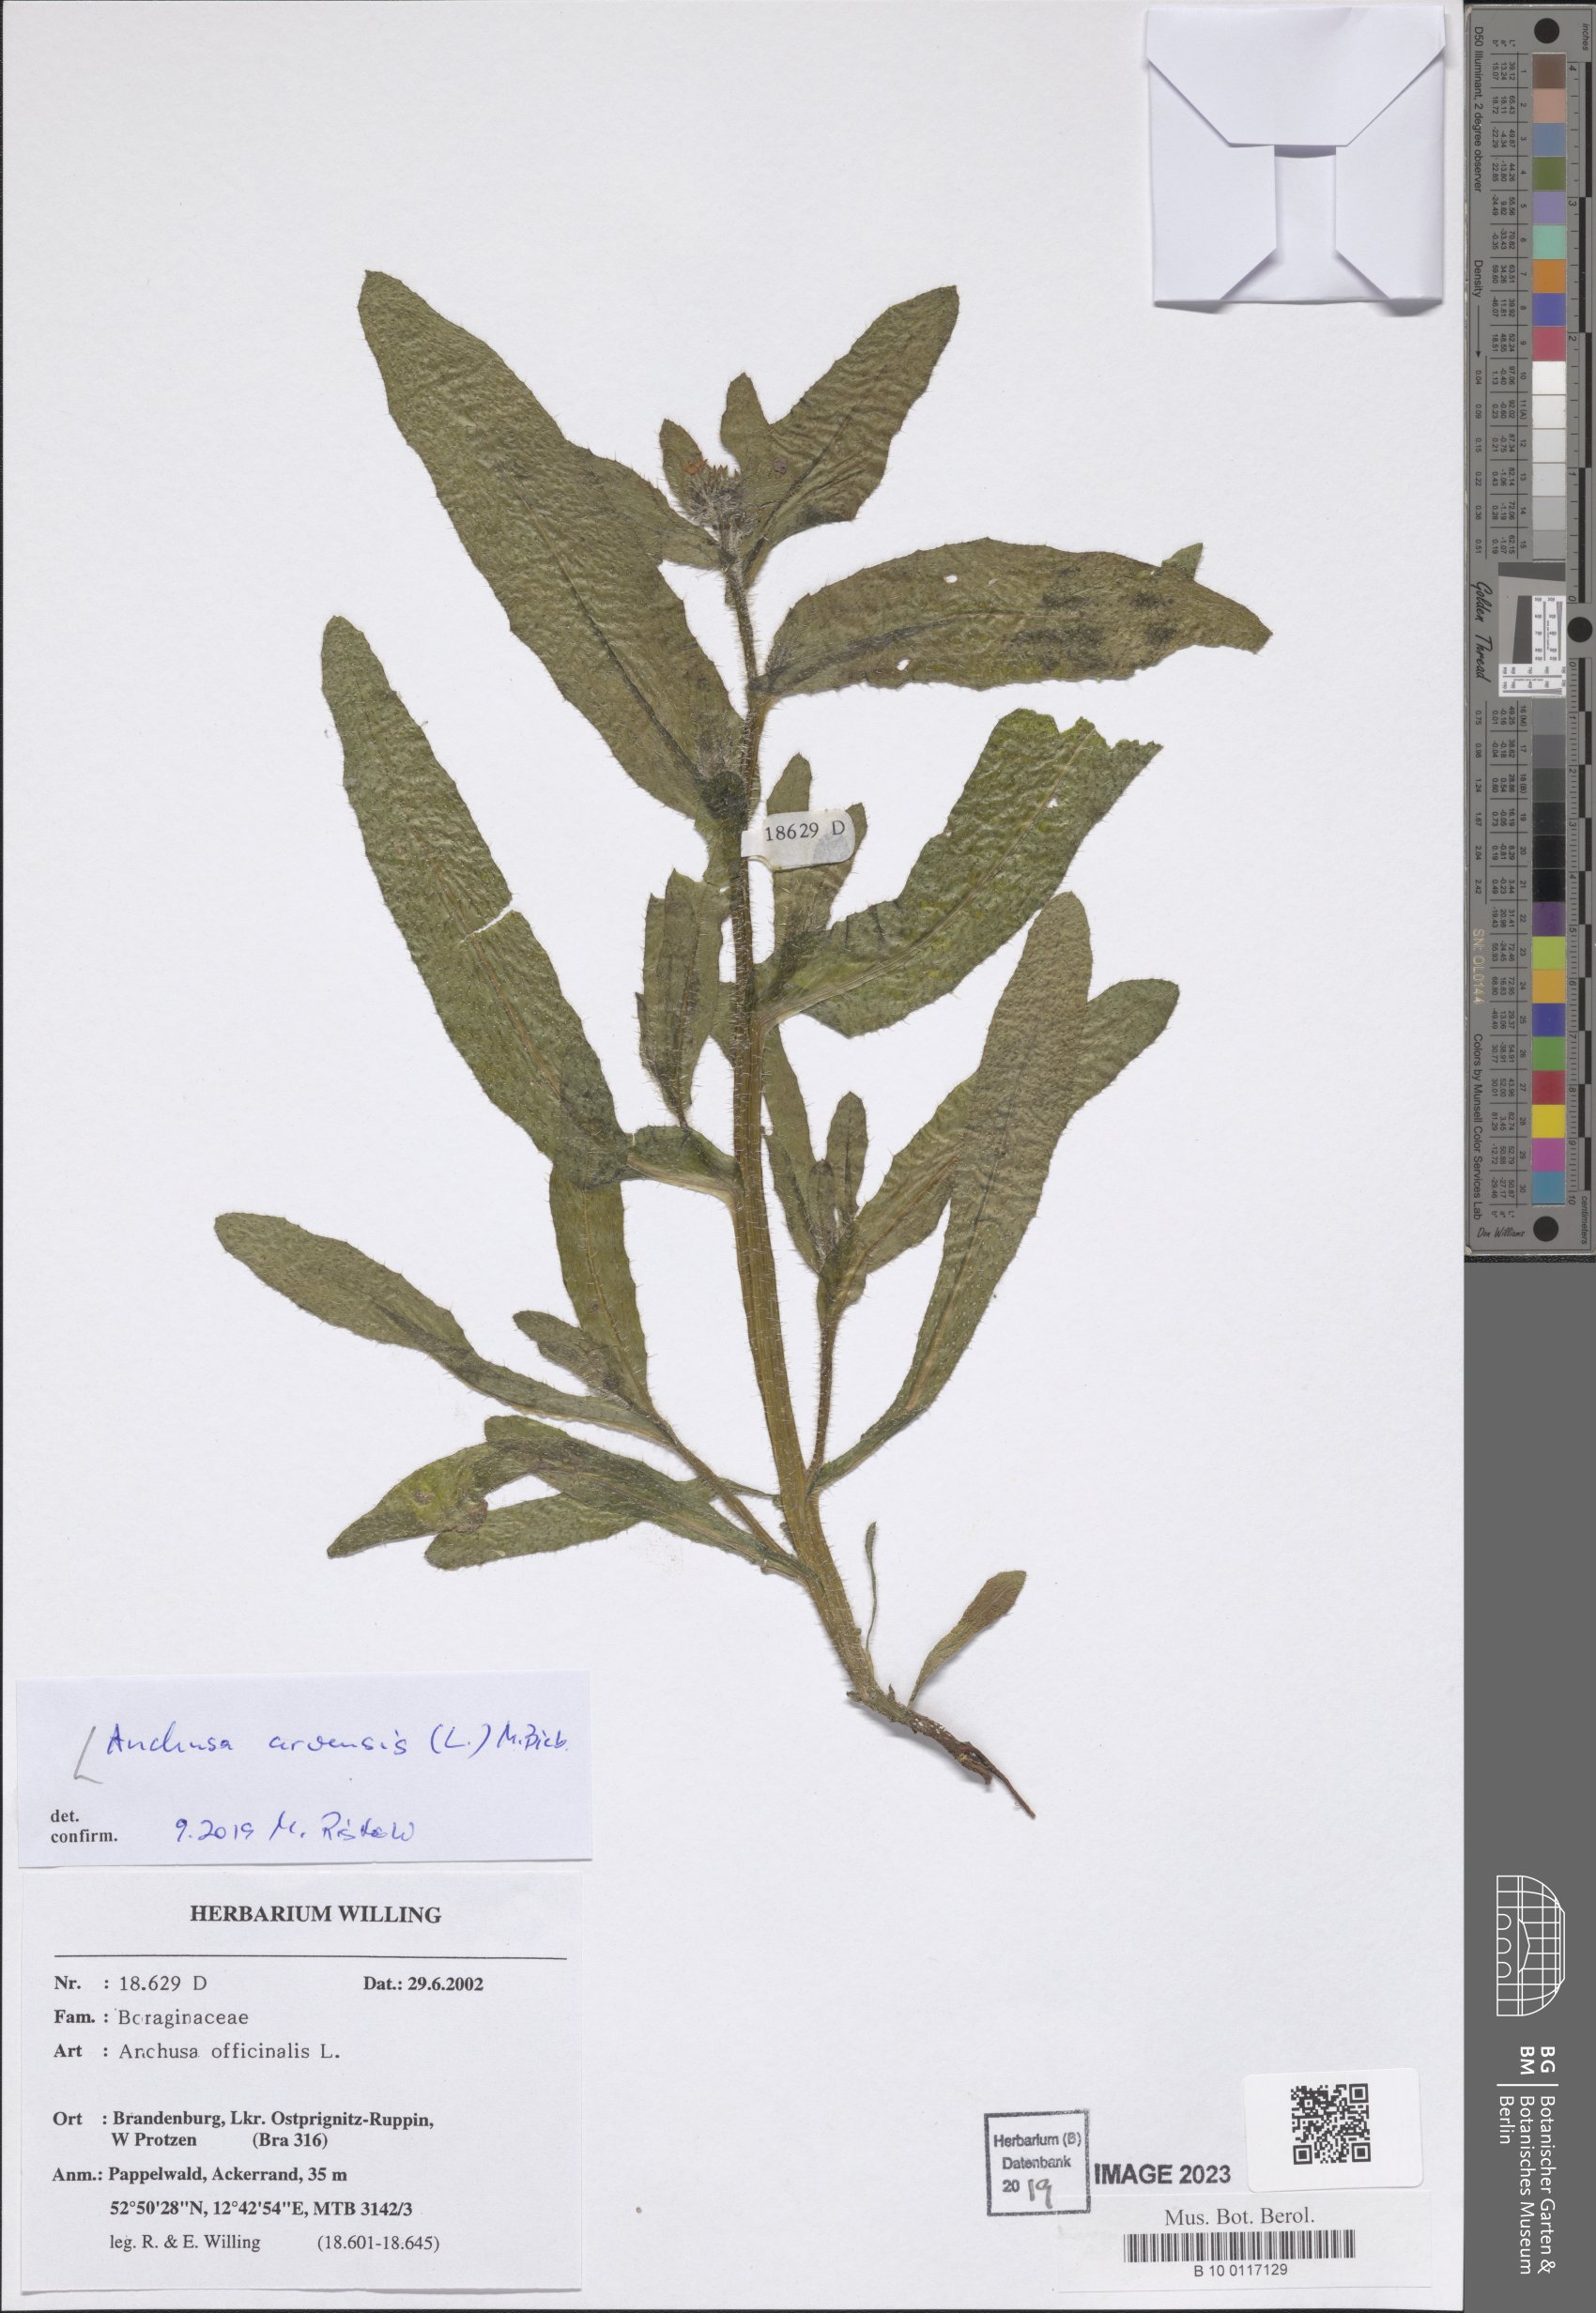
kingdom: Plantae
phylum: Tracheophyta
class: Magnoliopsida
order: Boraginales
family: Boraginaceae
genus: Lycopsis
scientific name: Lycopsis arvensis
